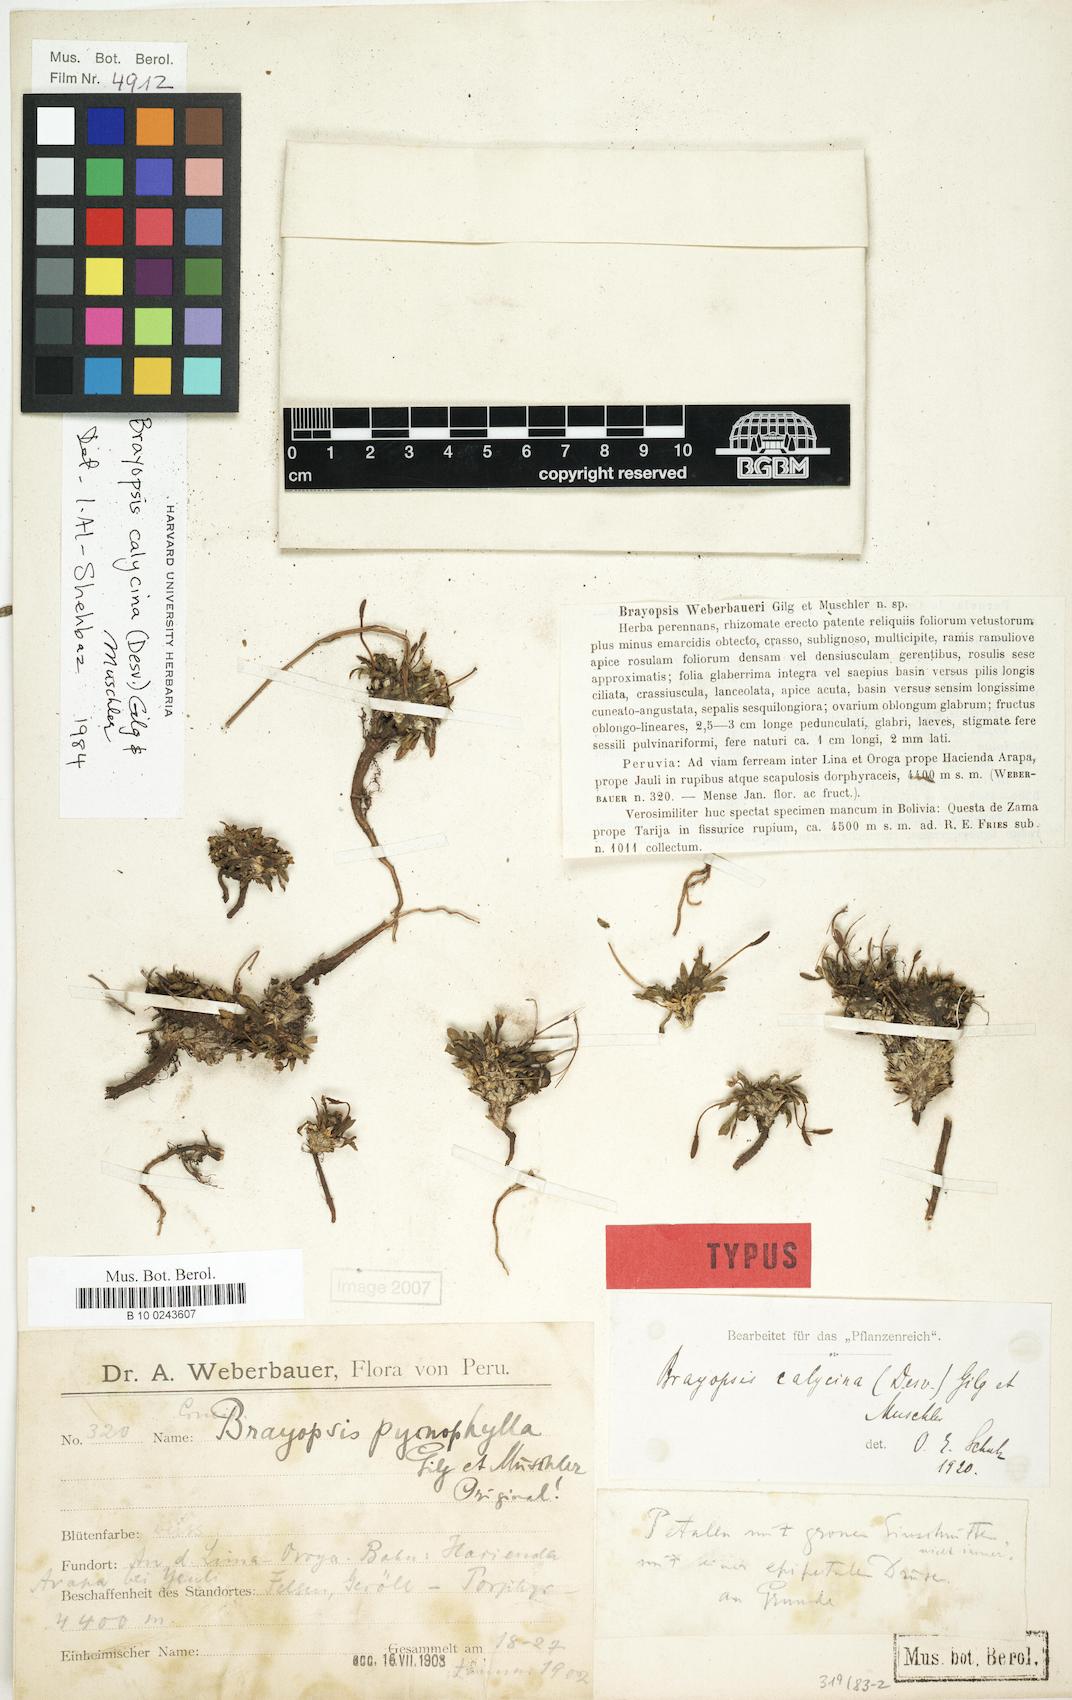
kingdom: Plantae
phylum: Tracheophyta
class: Magnoliopsida
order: Brassicales
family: Brassicaceae
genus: Brayopsis
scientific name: Brayopsis calycina
